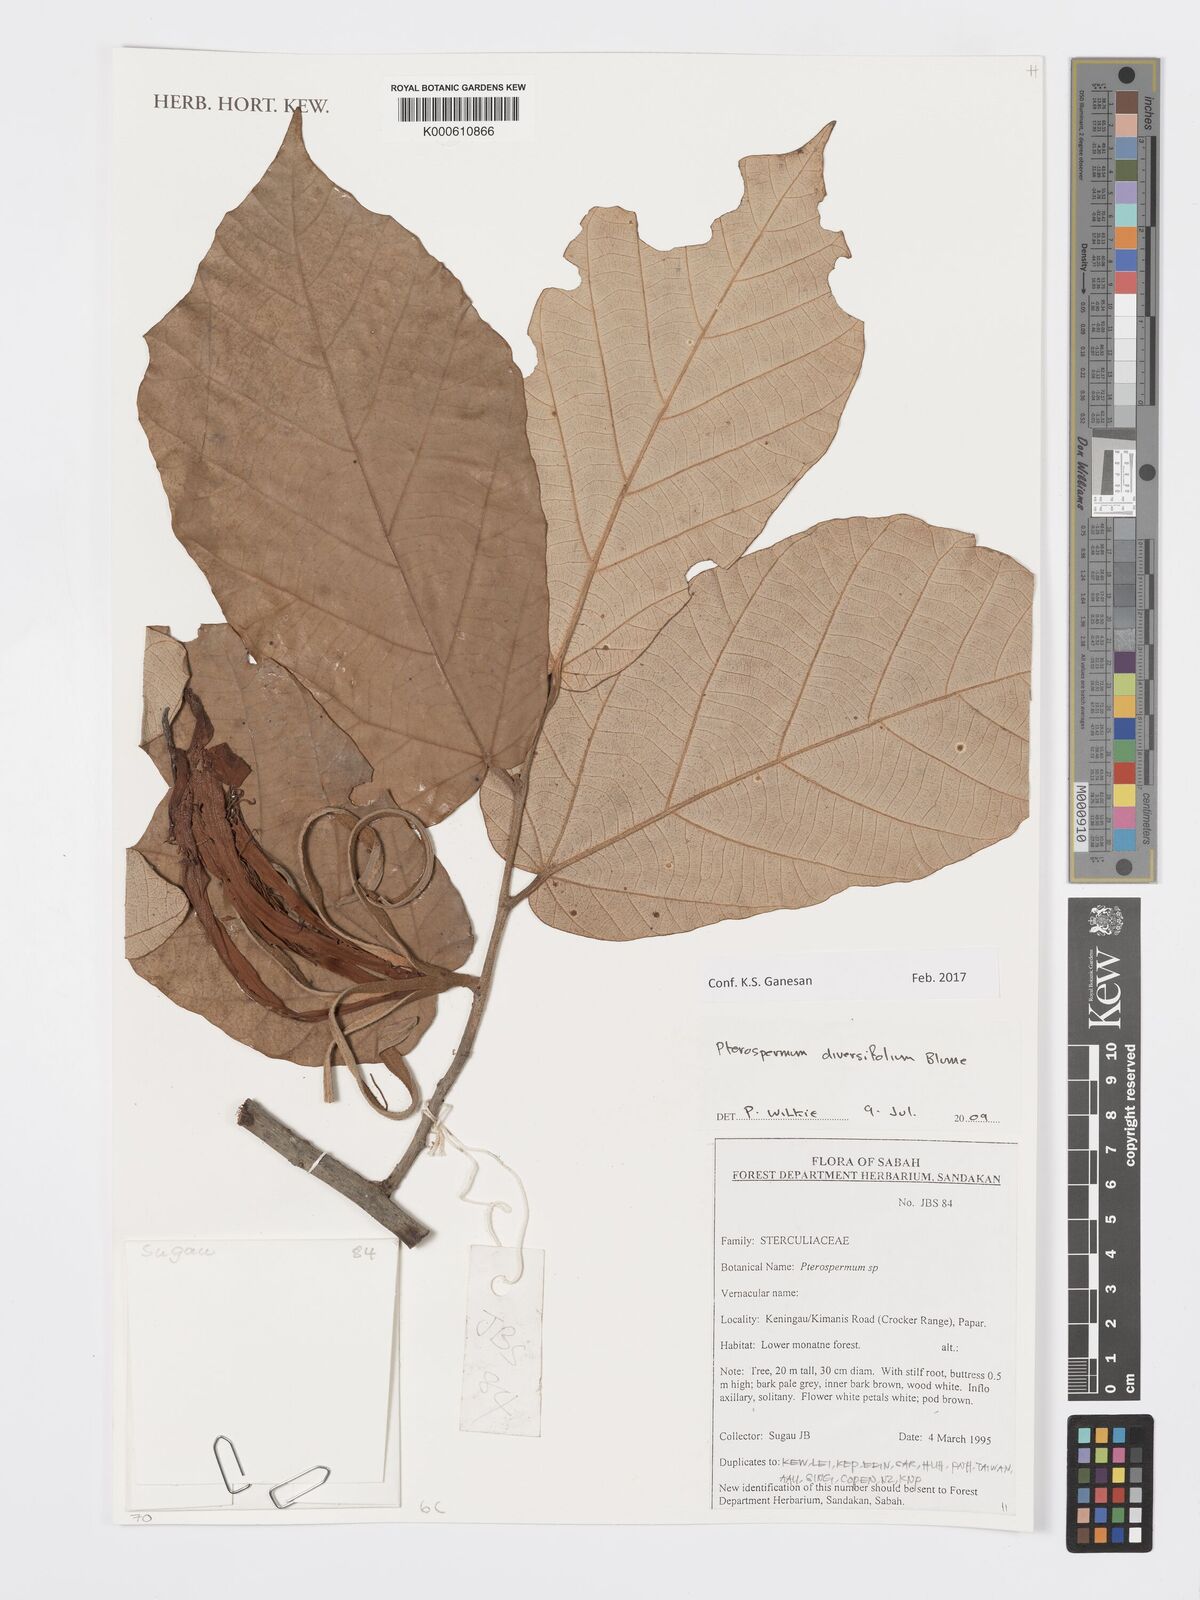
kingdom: Plantae
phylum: Tracheophyta
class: Magnoliopsida
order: Malvales
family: Malvaceae
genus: Pterospermum
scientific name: Pterospermum diversifolium
